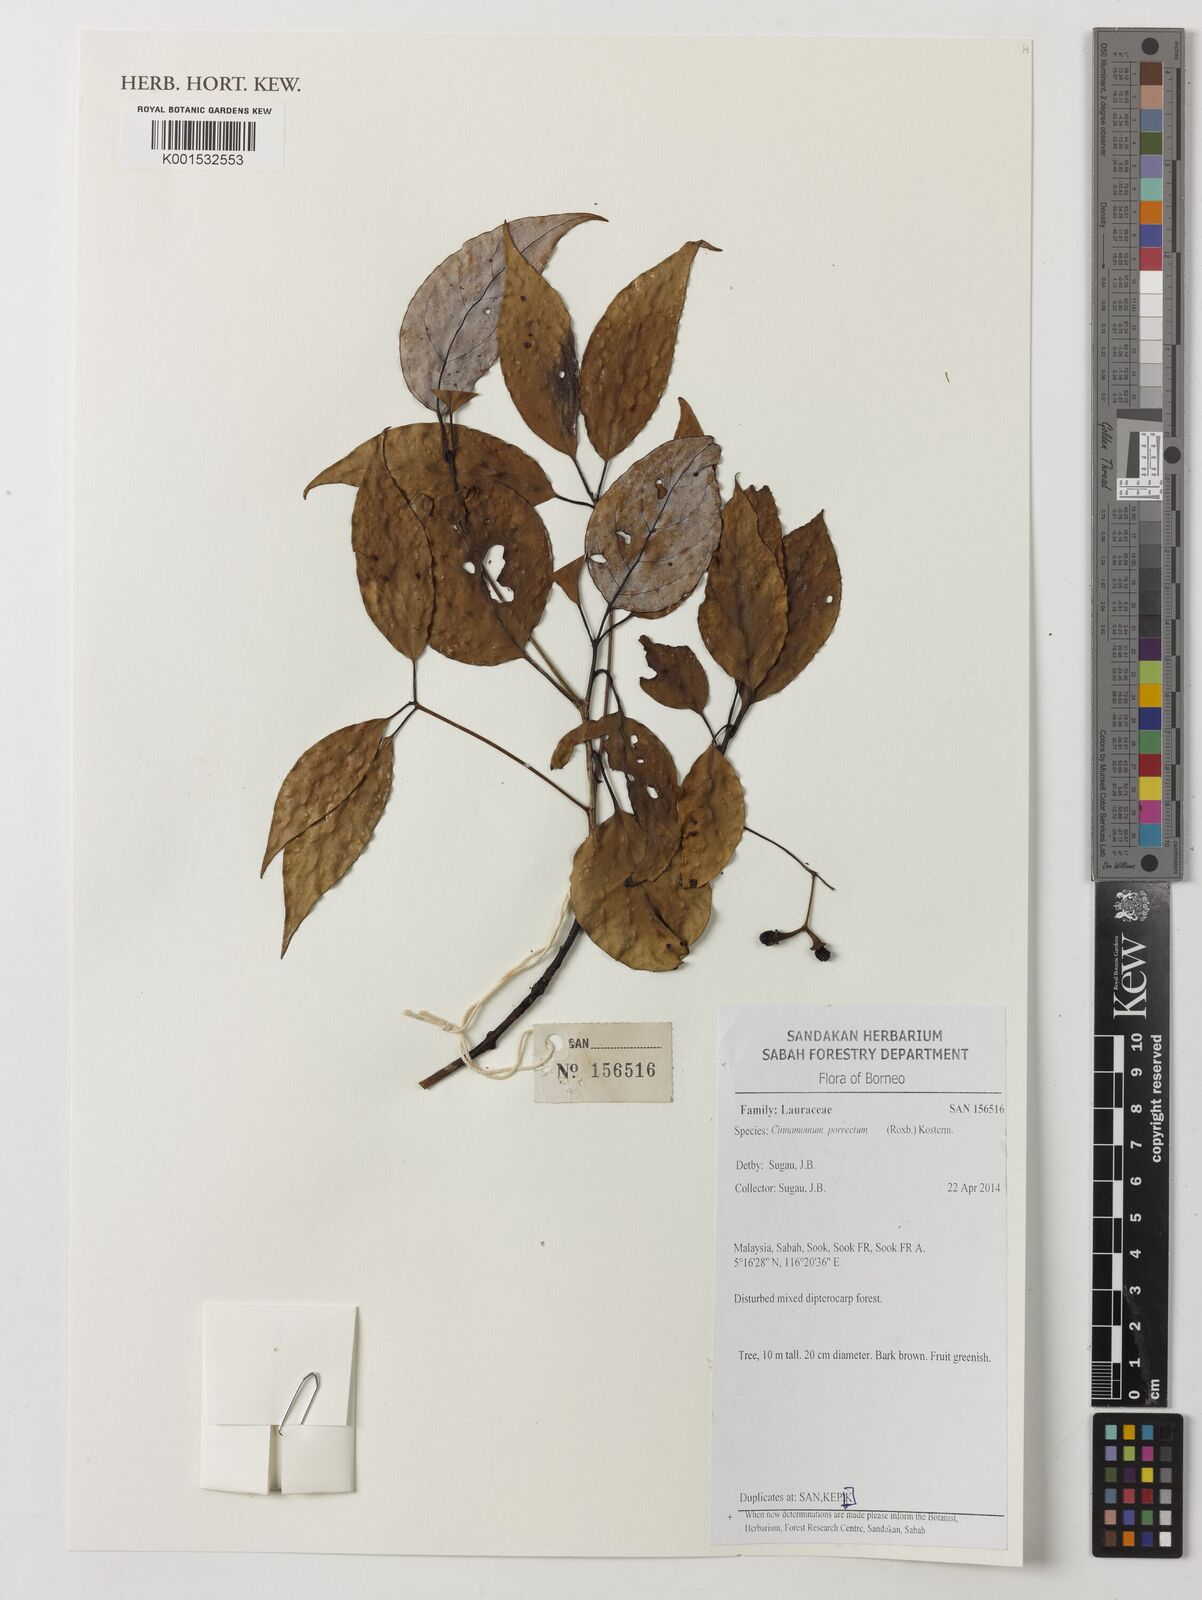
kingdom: Plantae
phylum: Tracheophyta
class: Magnoliopsida
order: Laurales
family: Lauraceae
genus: Cinnamomum
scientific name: Cinnamomum parthenoxylon
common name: Martaban camphor wood
